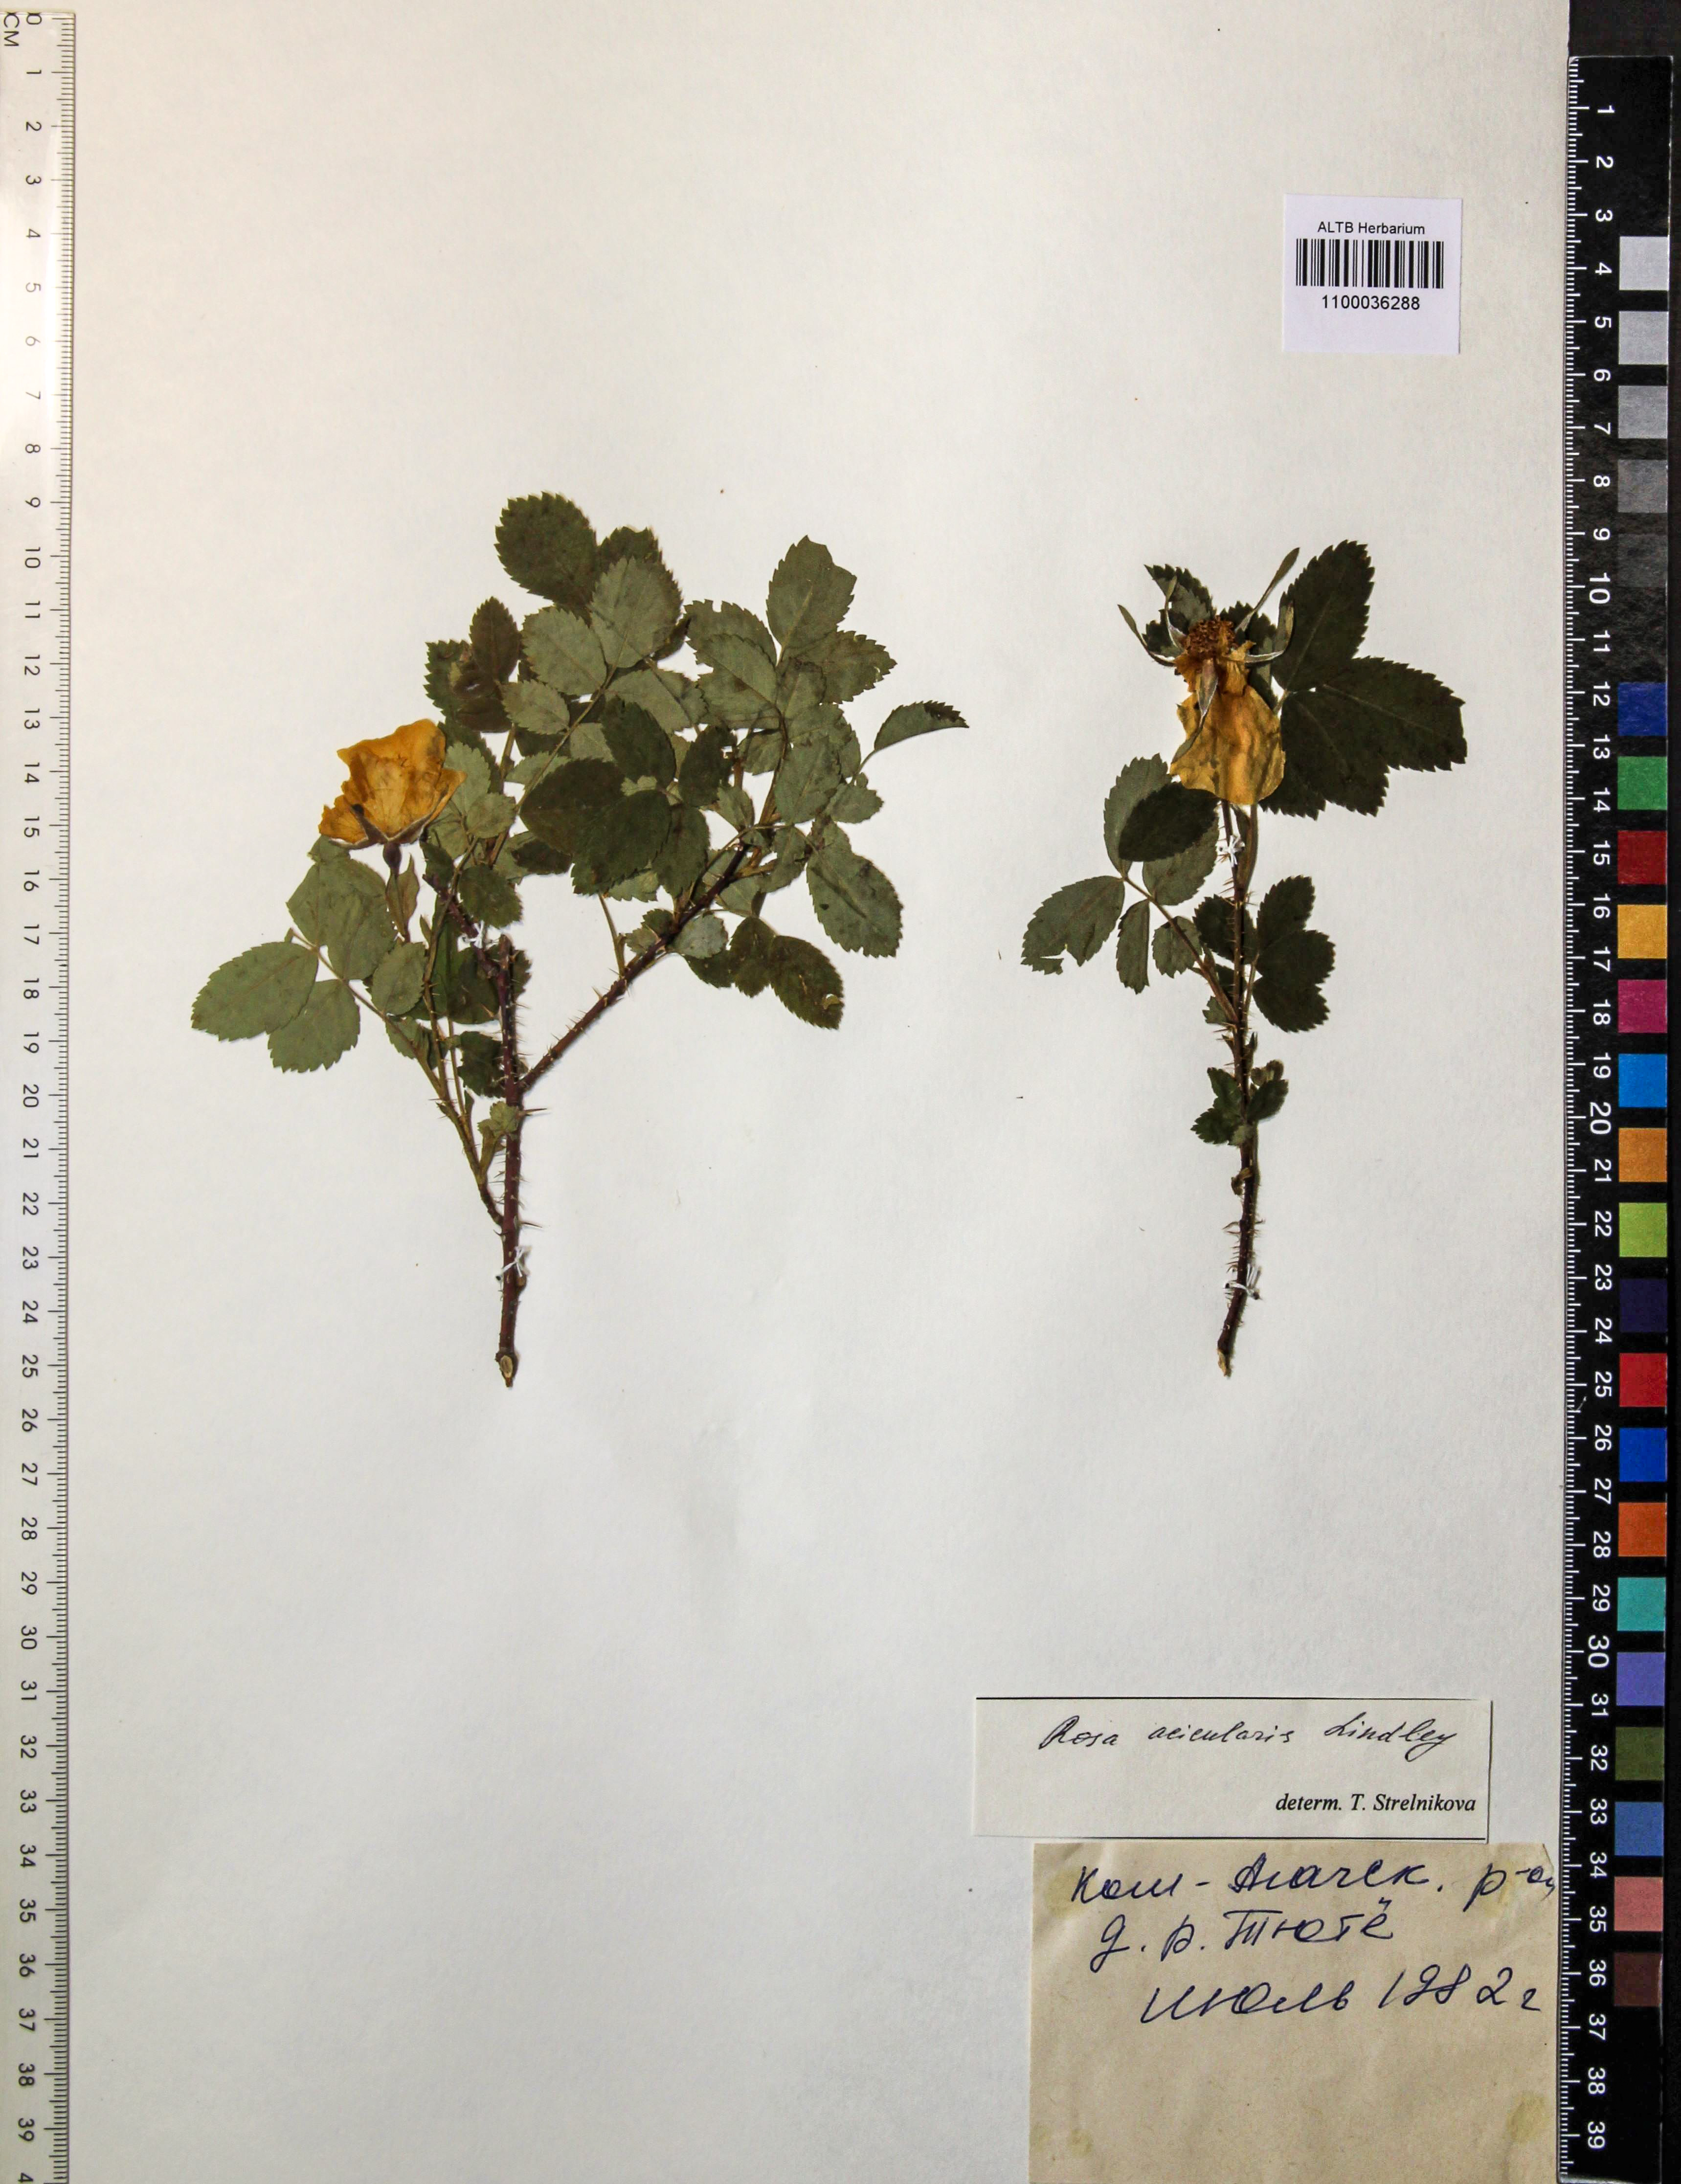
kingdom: Plantae
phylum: Tracheophyta
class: Magnoliopsida
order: Rosales
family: Rosaceae
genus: Rosa
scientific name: Rosa acicularis
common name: Prickly rose
